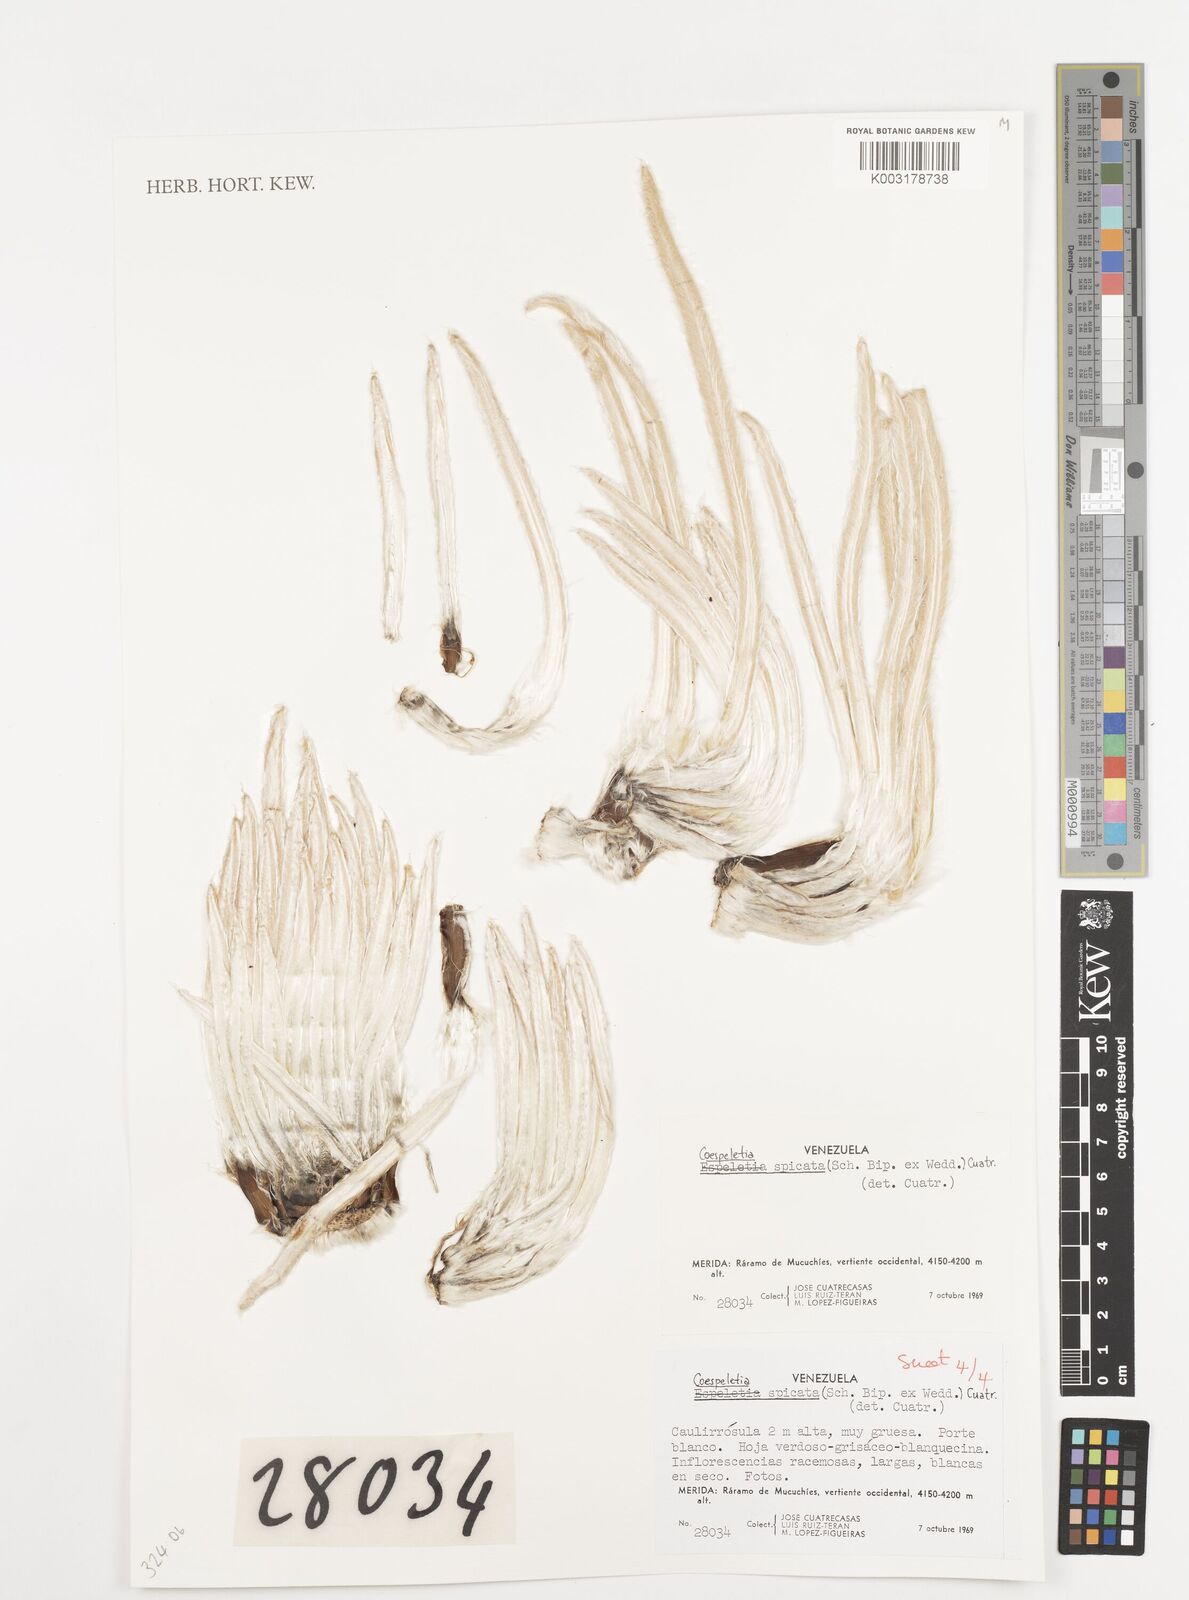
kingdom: Plantae
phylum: Tracheophyta
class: Magnoliopsida
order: Asterales
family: Asteraceae
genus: Espeletia
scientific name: Espeletia spicata
